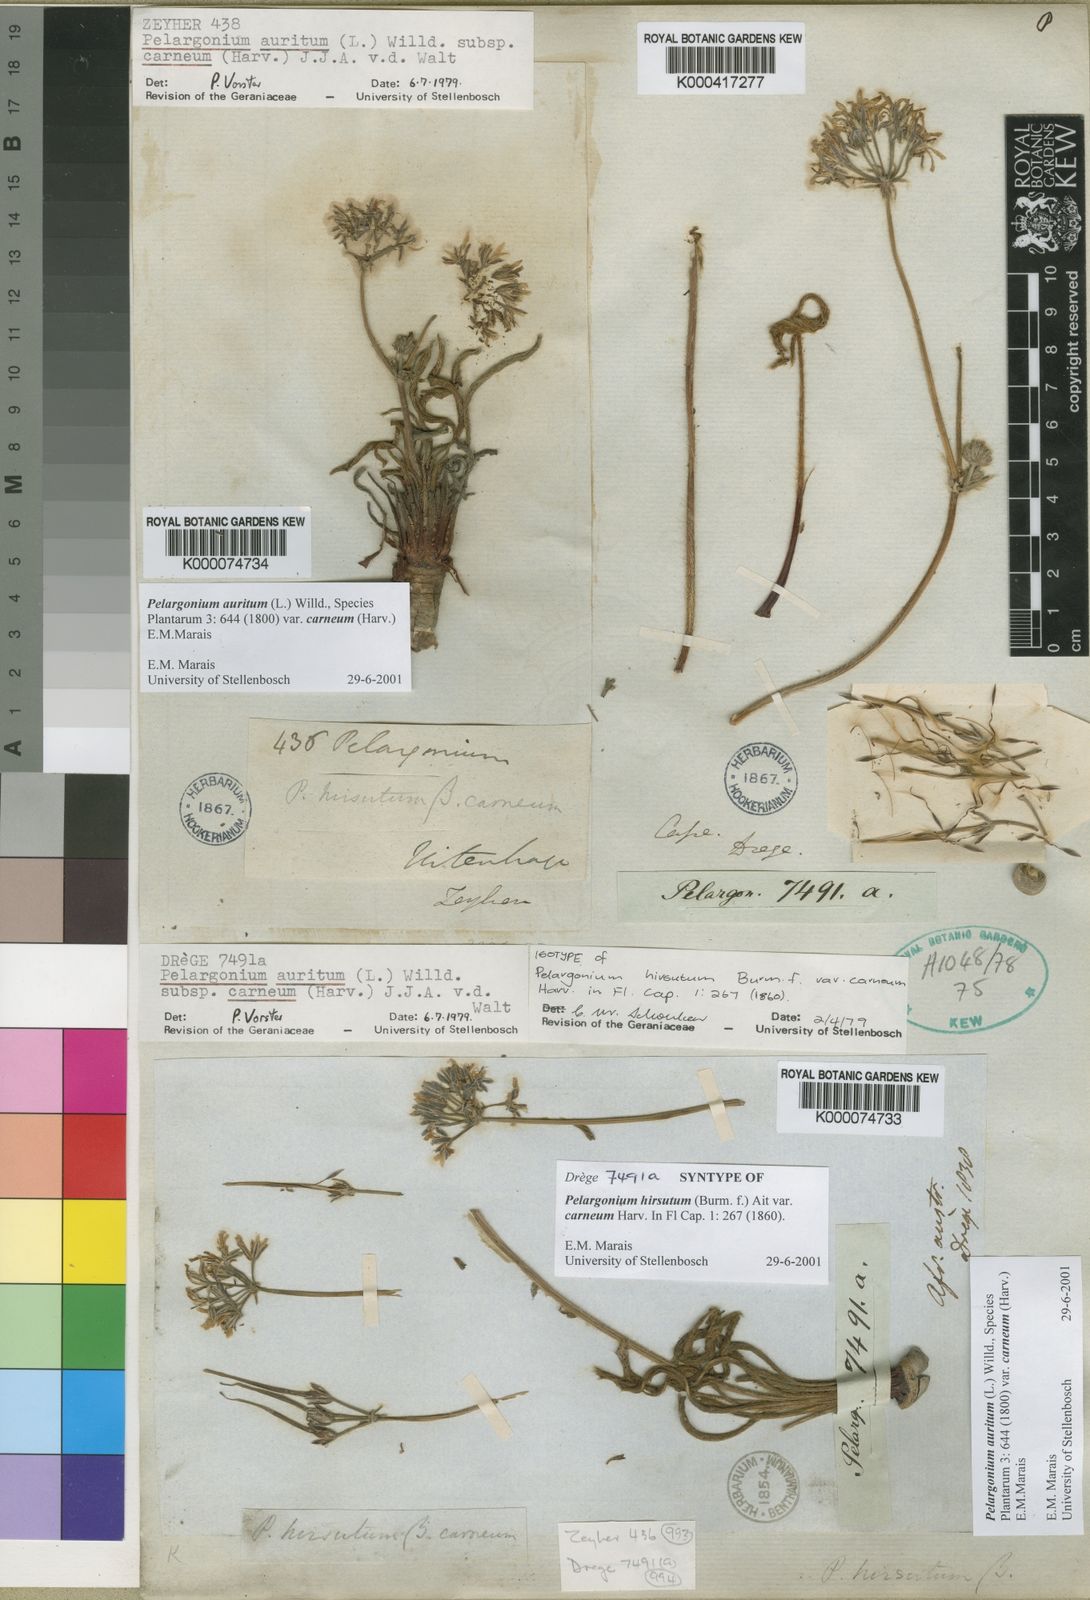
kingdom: Plantae
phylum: Tracheophyta
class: Magnoliopsida
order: Geraniales
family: Geraniaceae
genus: Pelargonium
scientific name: Pelargonium auritum
